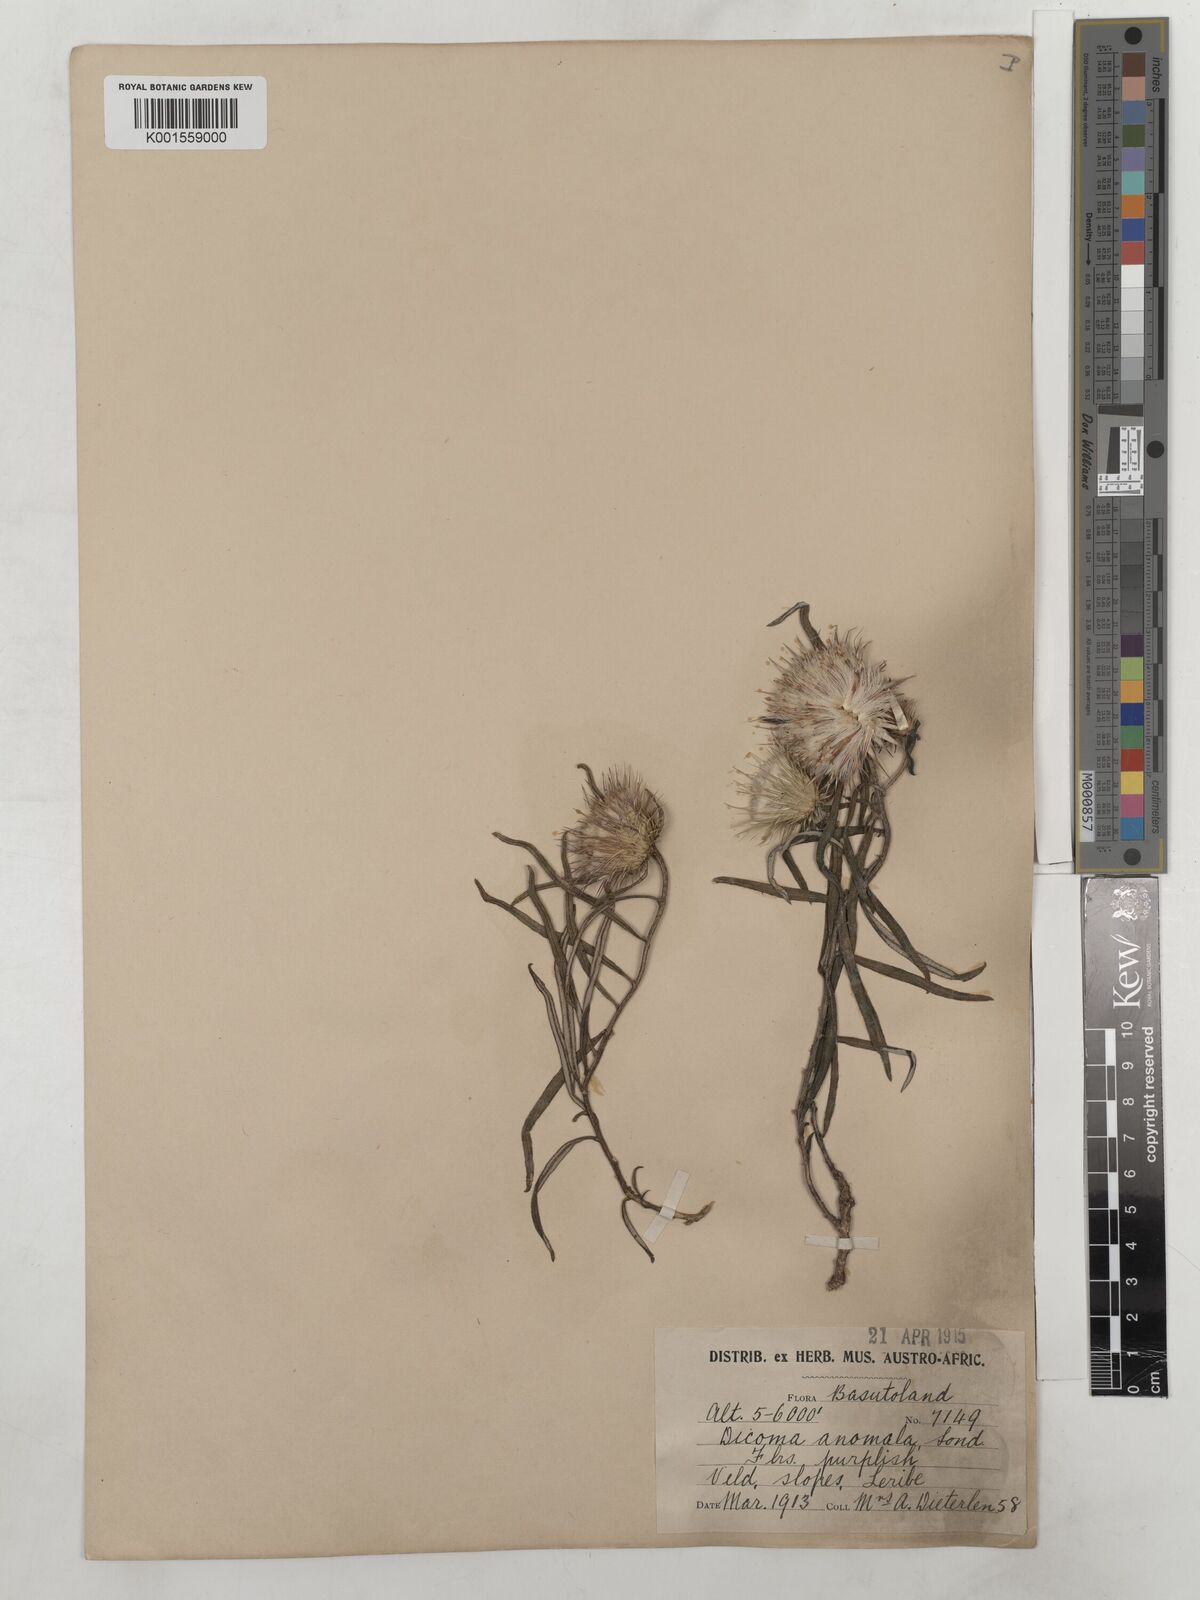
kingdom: Plantae
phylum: Tracheophyta
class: Magnoliopsida
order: Asterales
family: Asteraceae
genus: Dicoma
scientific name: Dicoma anomala
